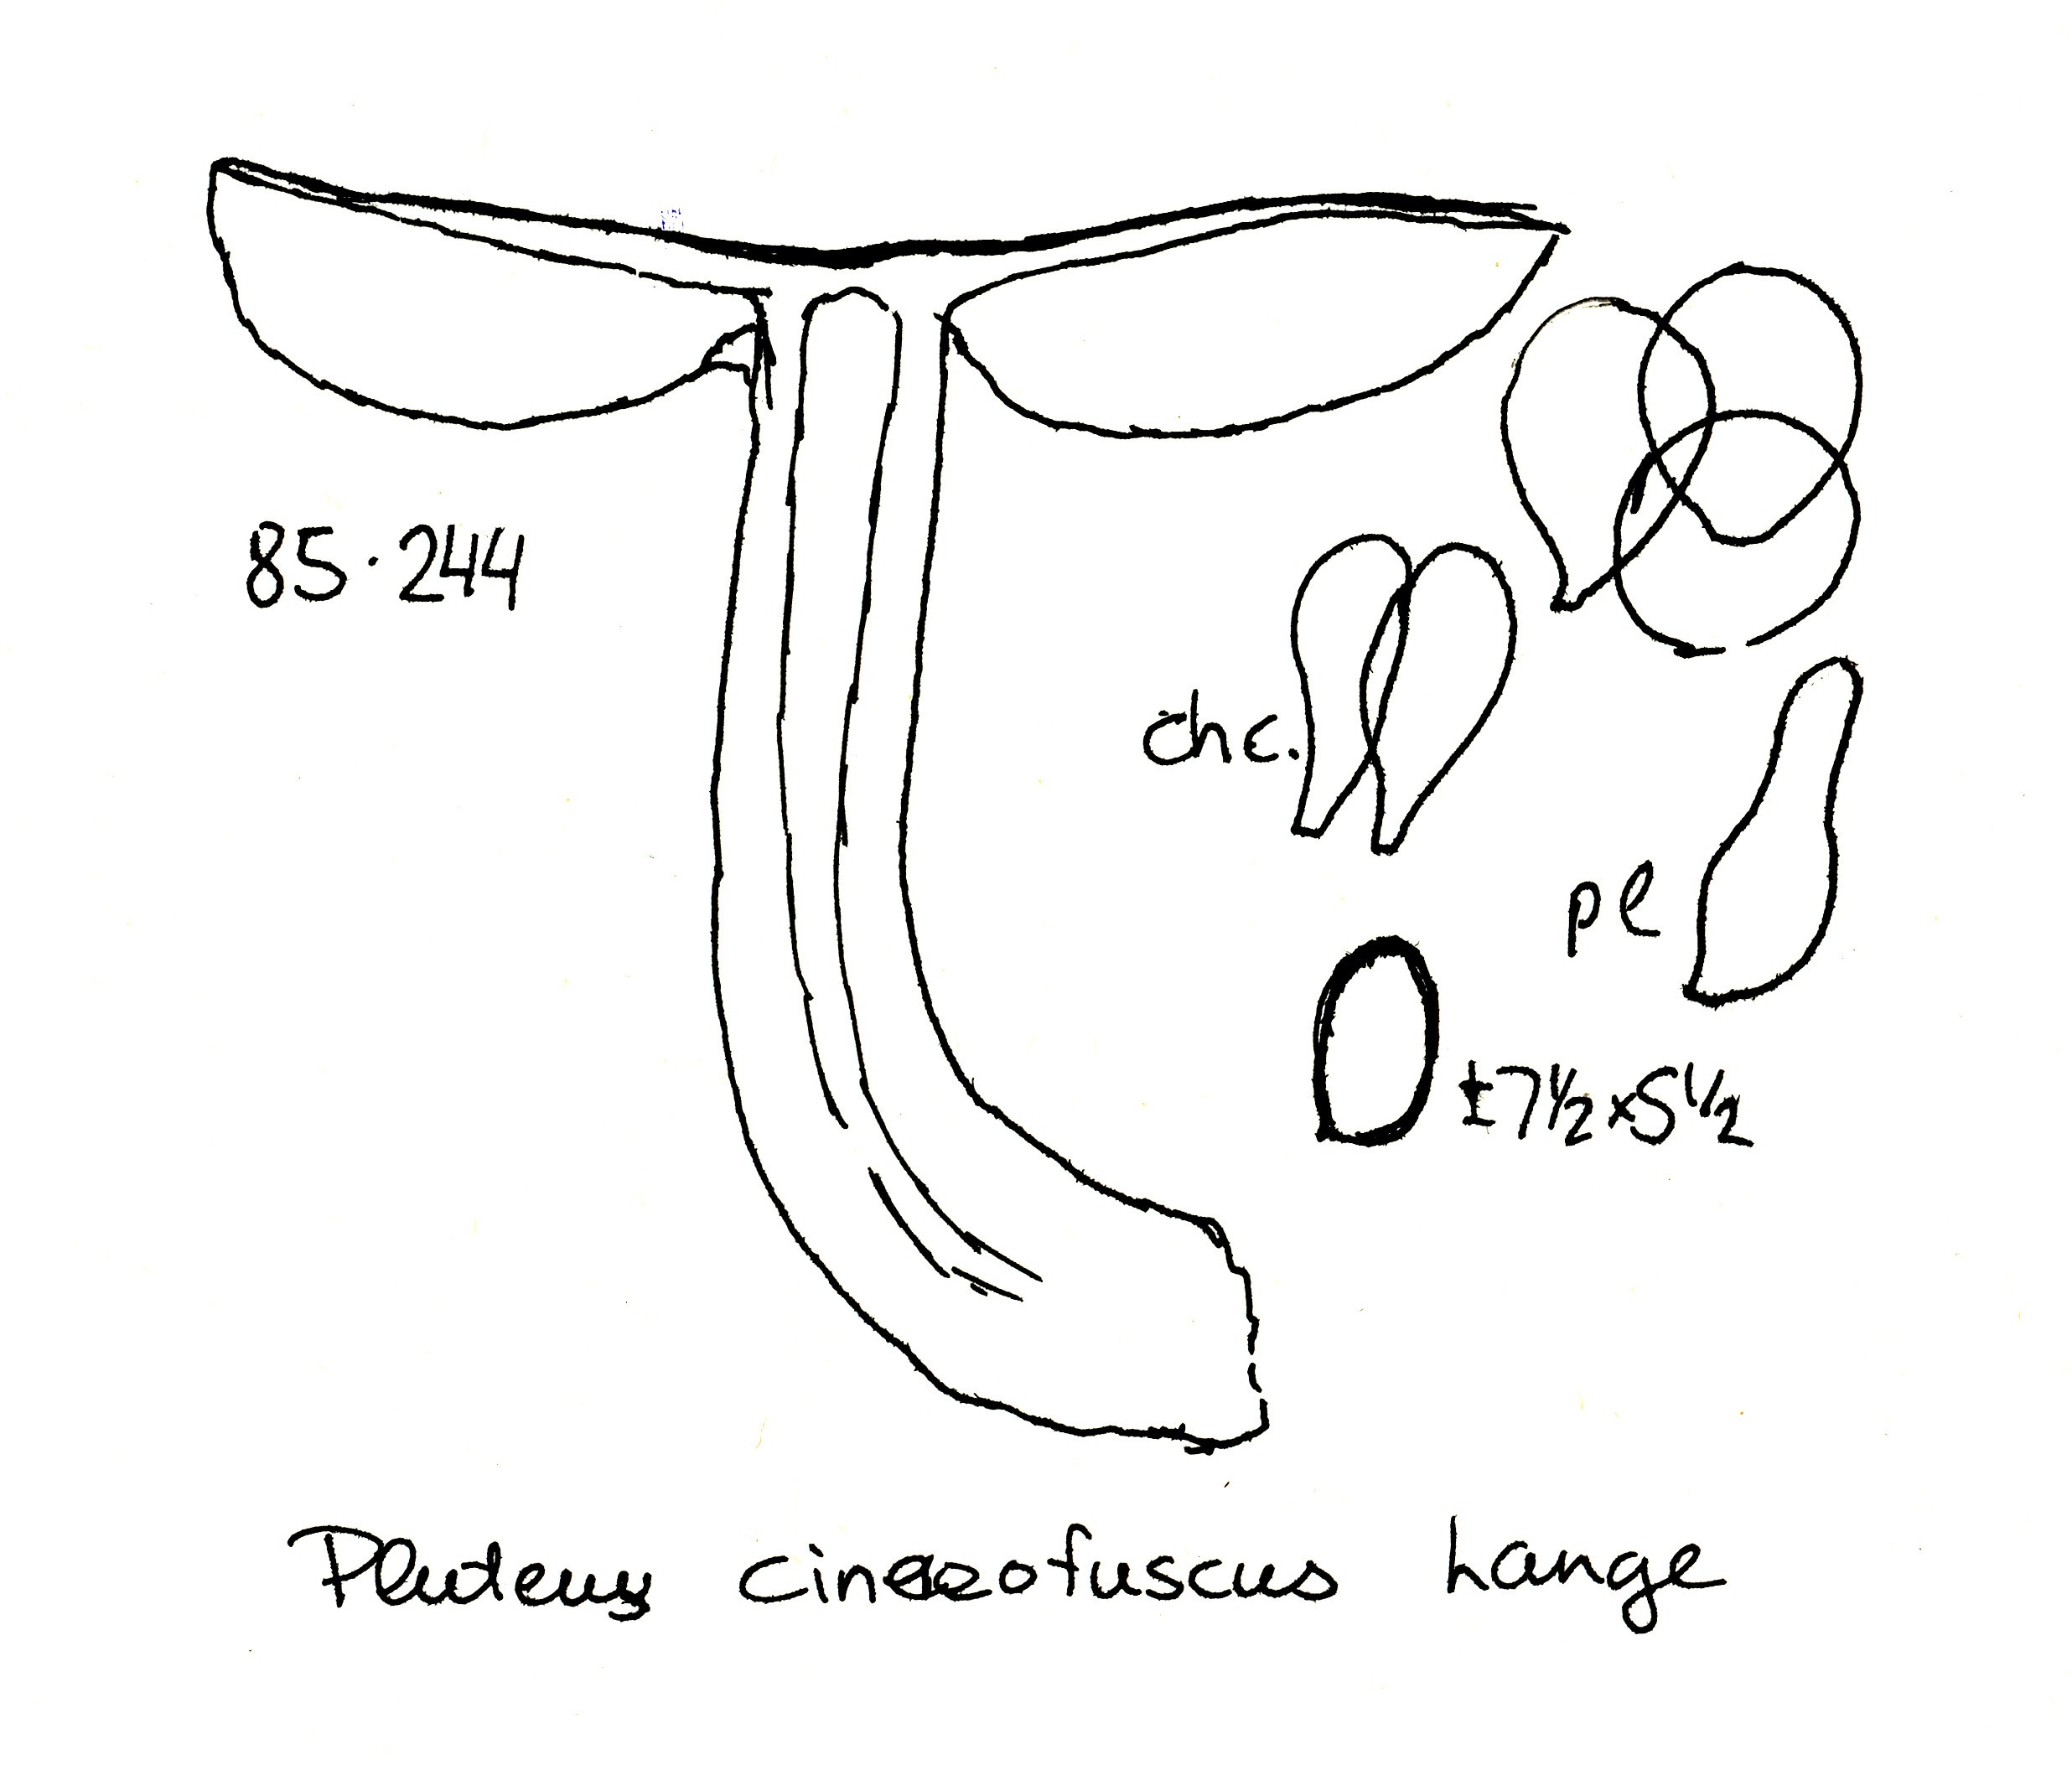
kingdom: Fungi
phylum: Basidiomycota
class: Agaricomycetes
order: Agaricales
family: Pluteaceae
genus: Pluteus
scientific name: Pluteus
